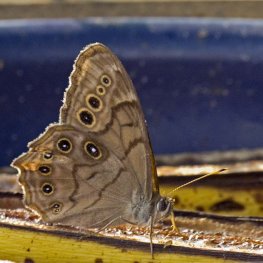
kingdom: Animalia
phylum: Arthropoda
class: Insecta
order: Lepidoptera
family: Nymphalidae
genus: Lethe
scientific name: Lethe anthedon
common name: Northern Pearly-Eye
